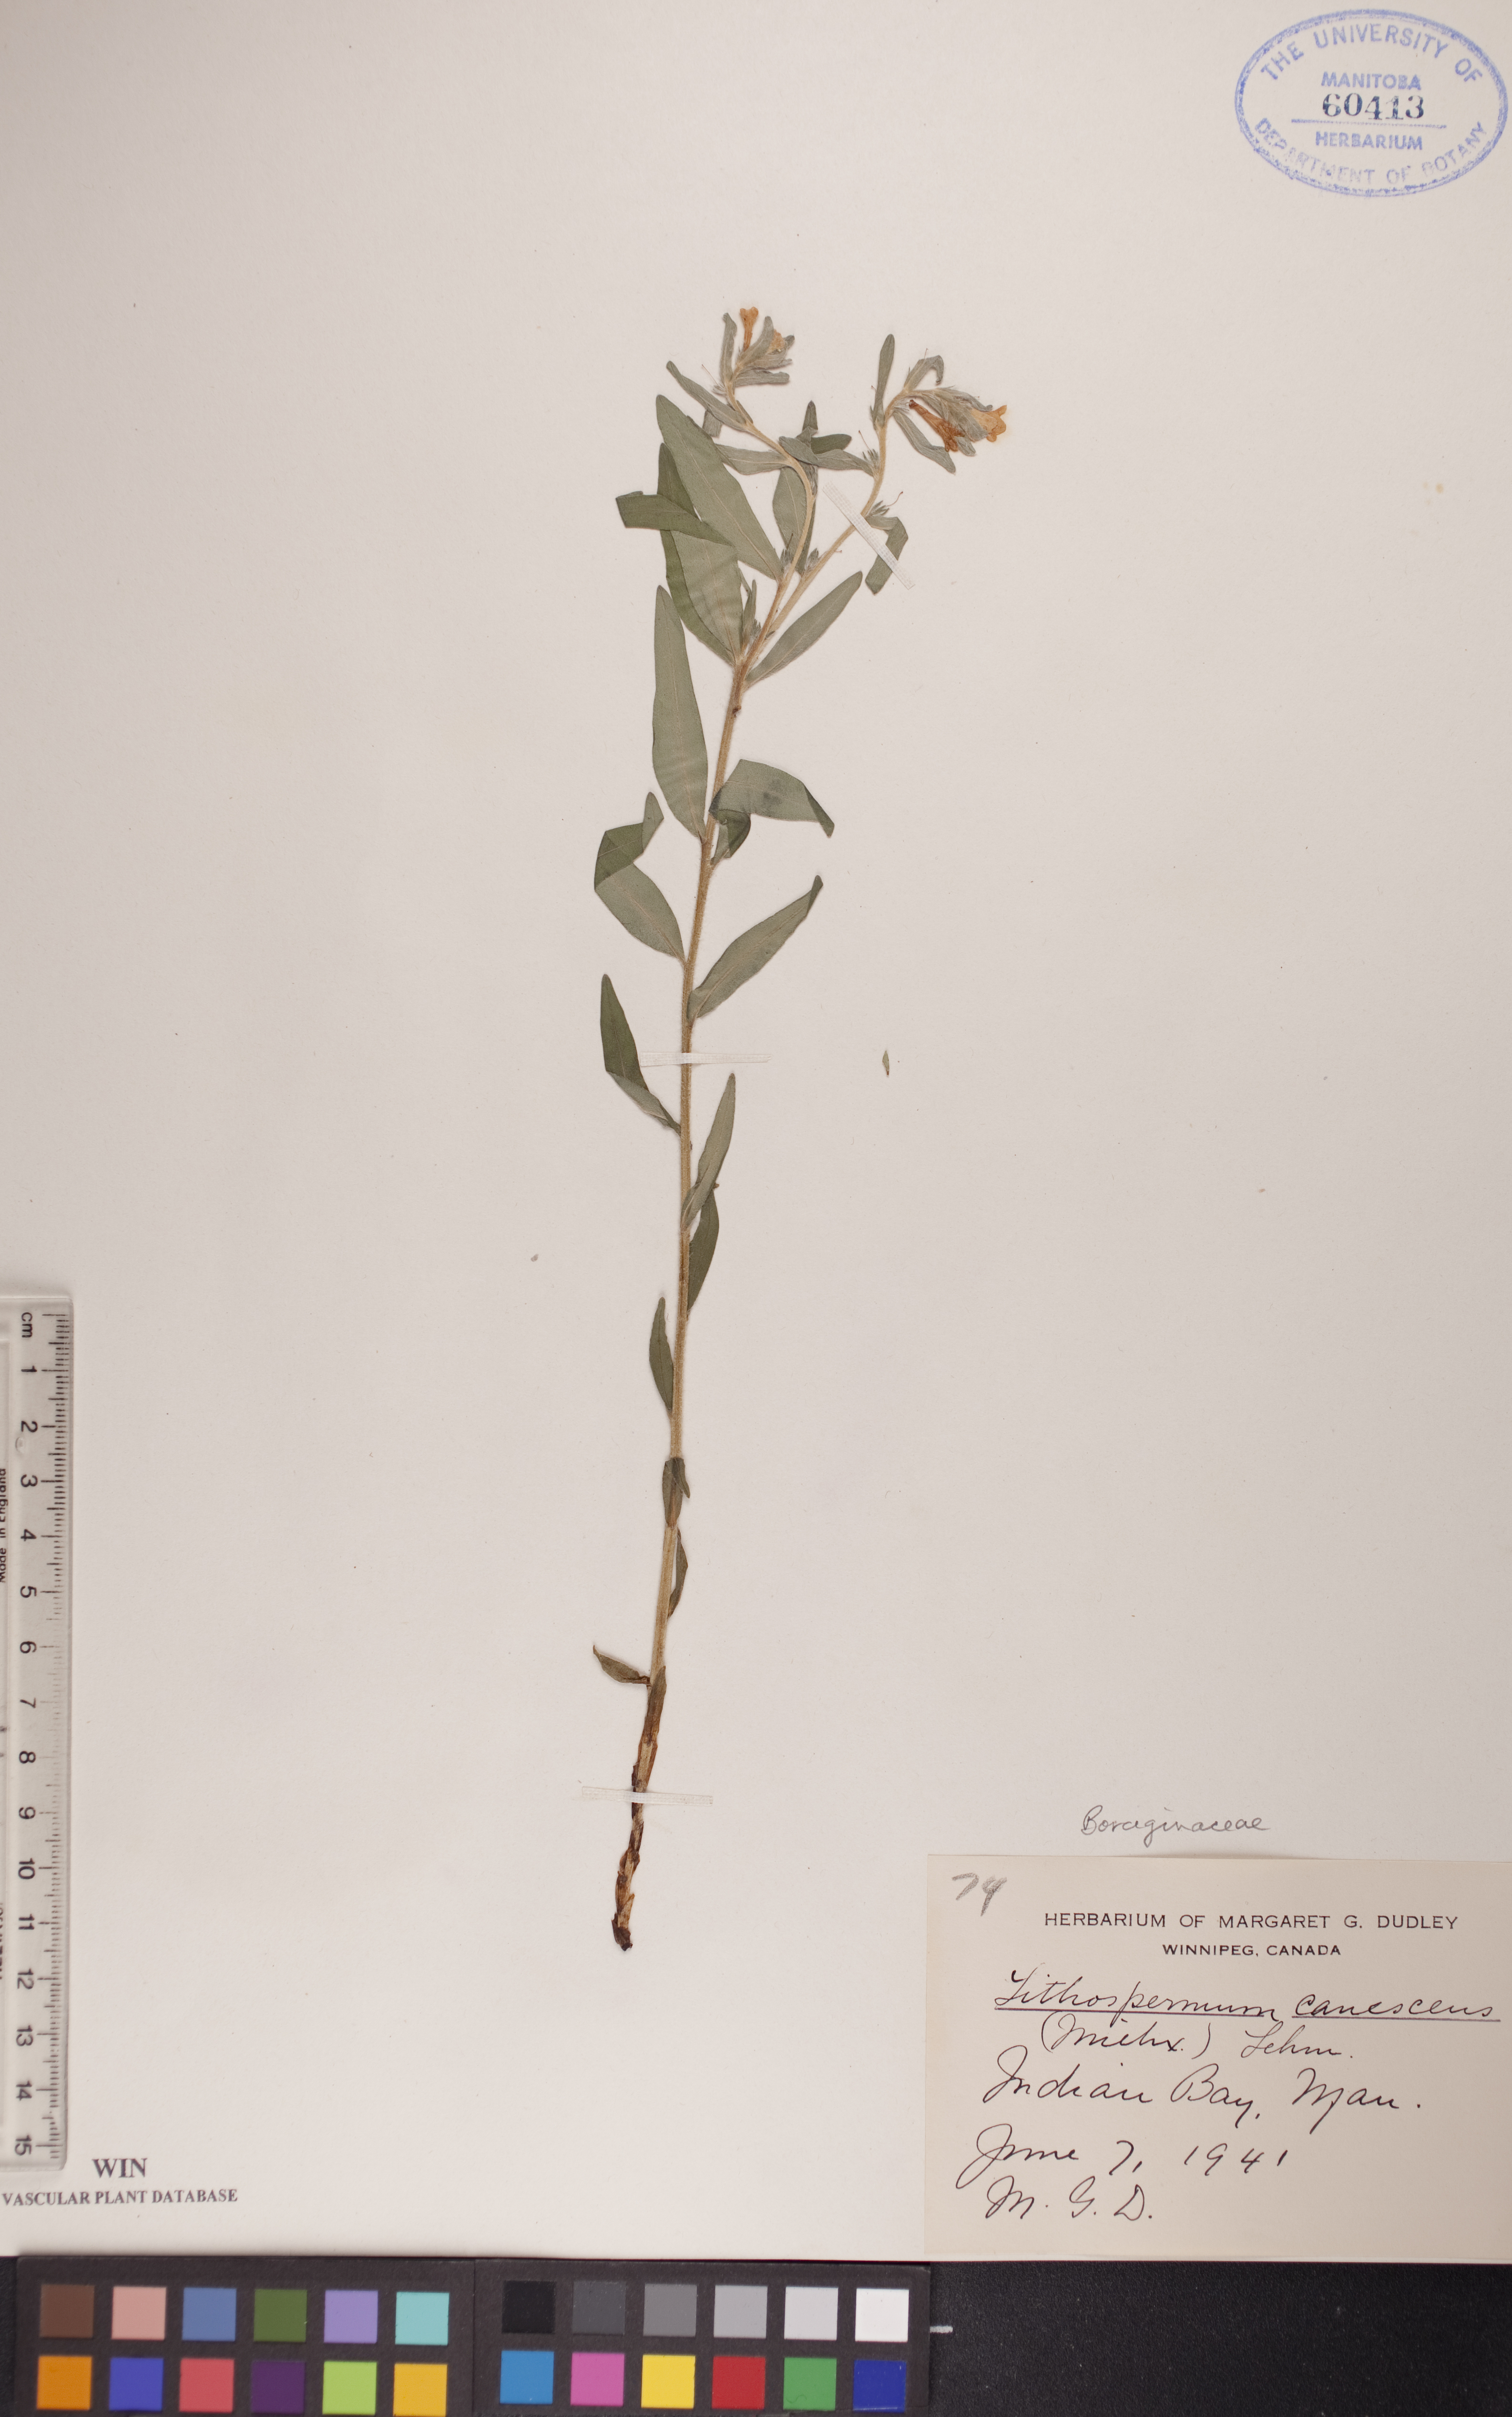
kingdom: Plantae
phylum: Tracheophyta
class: Magnoliopsida
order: Boraginales
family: Boraginaceae
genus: Lithospermum
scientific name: Lithospermum canescens
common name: Hoary puccoon
